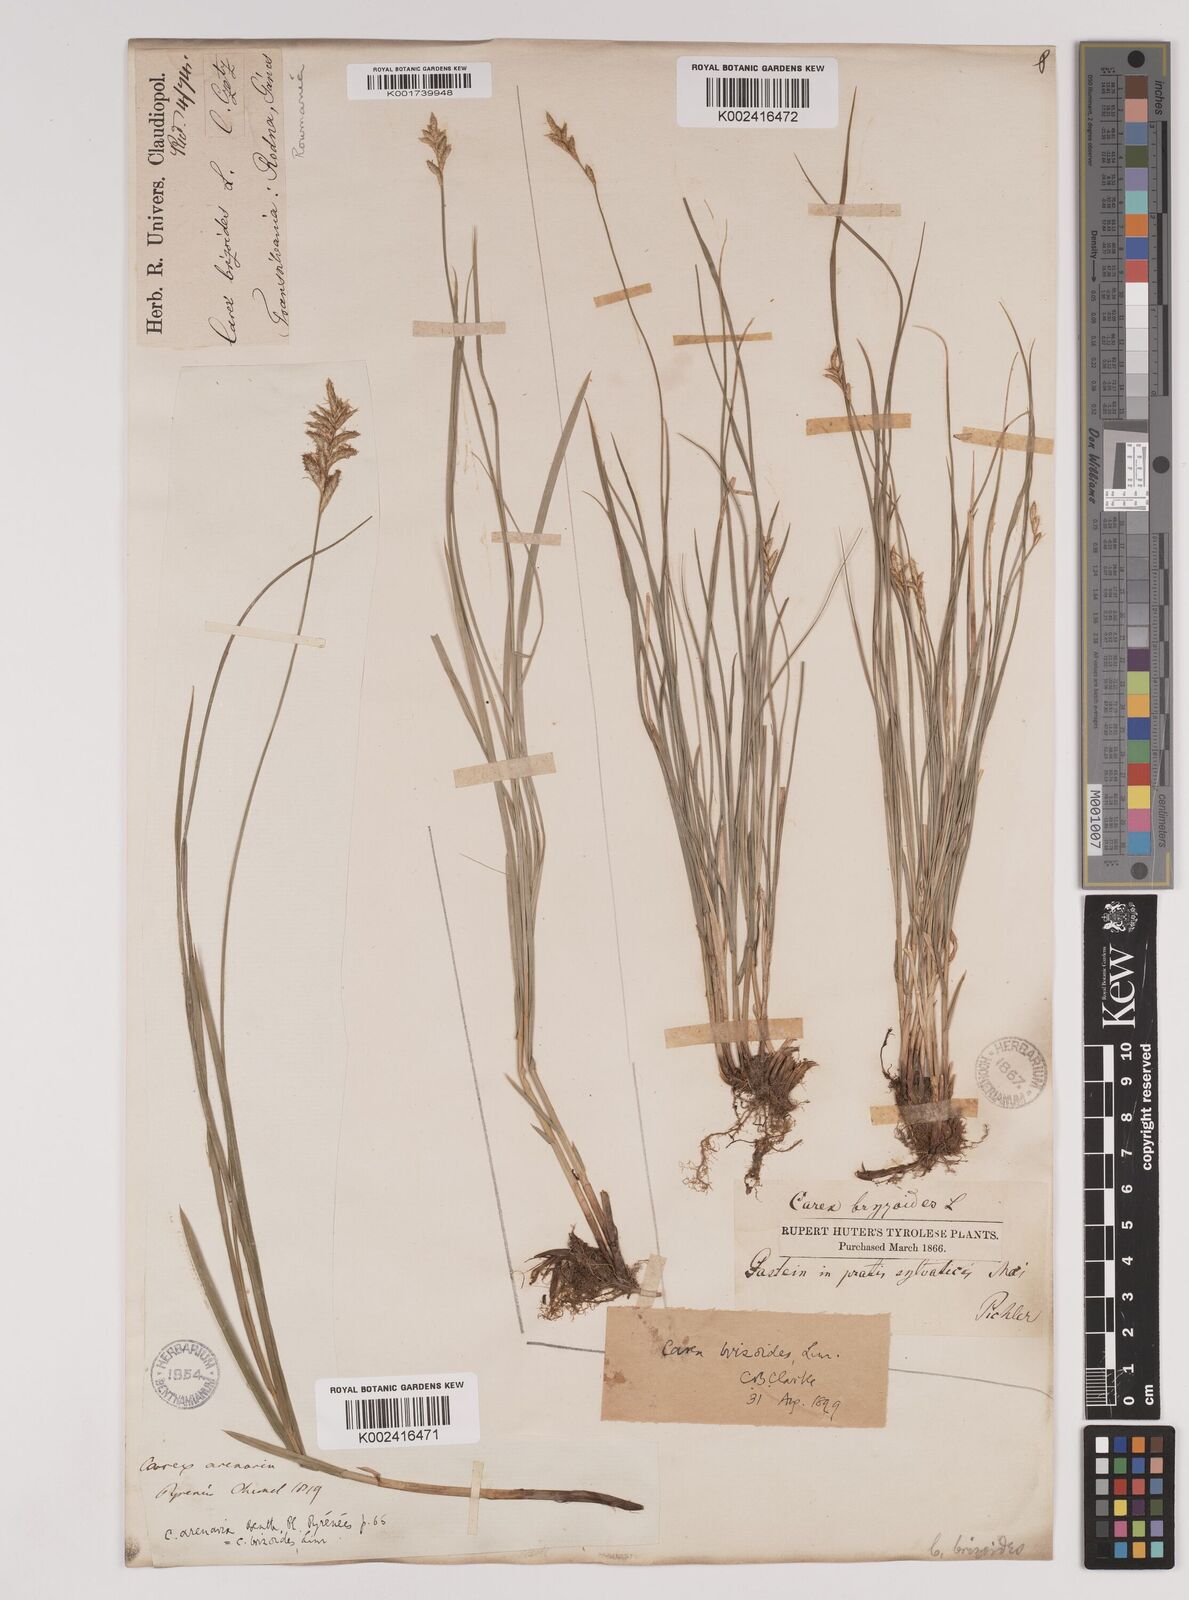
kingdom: Plantae
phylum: Tracheophyta
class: Liliopsida
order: Poales
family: Cyperaceae
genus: Carex
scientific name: Carex brizoides
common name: Quaking-grass sedge
